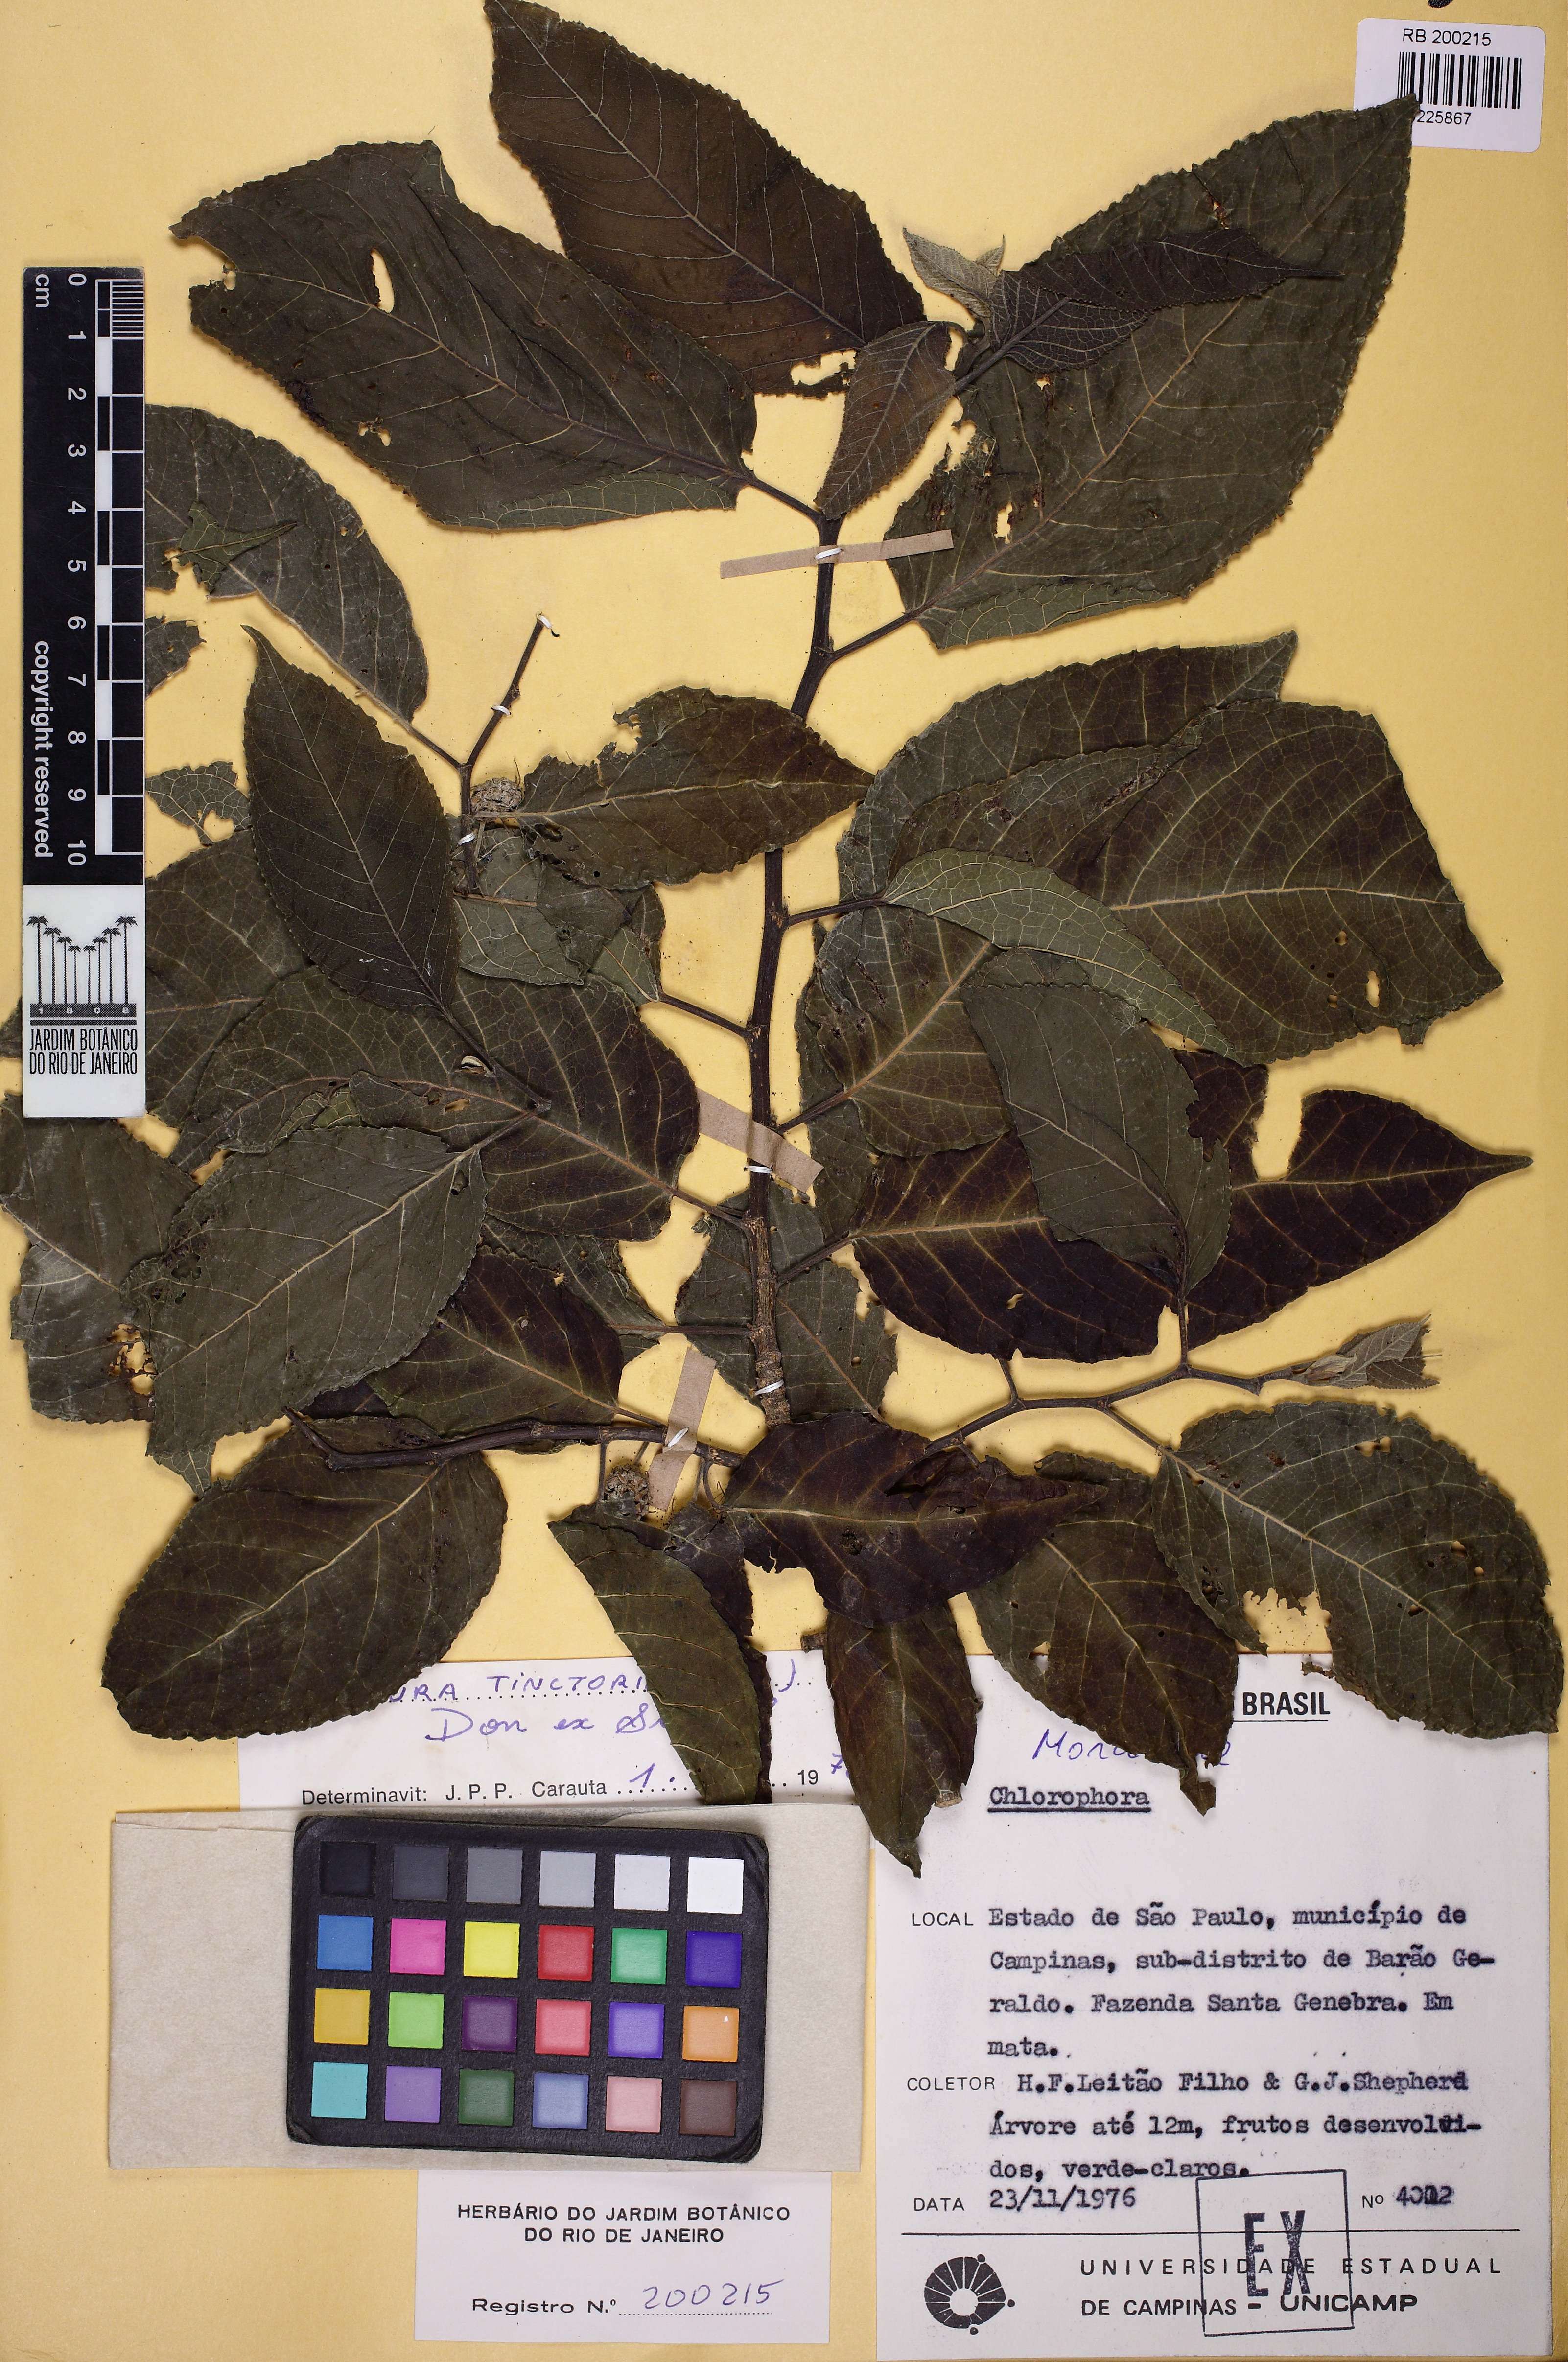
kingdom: Plantae
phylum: Tracheophyta
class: Magnoliopsida
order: Rosales
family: Moraceae
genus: Maclura
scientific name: Maclura tinctoria
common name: Old fustic
